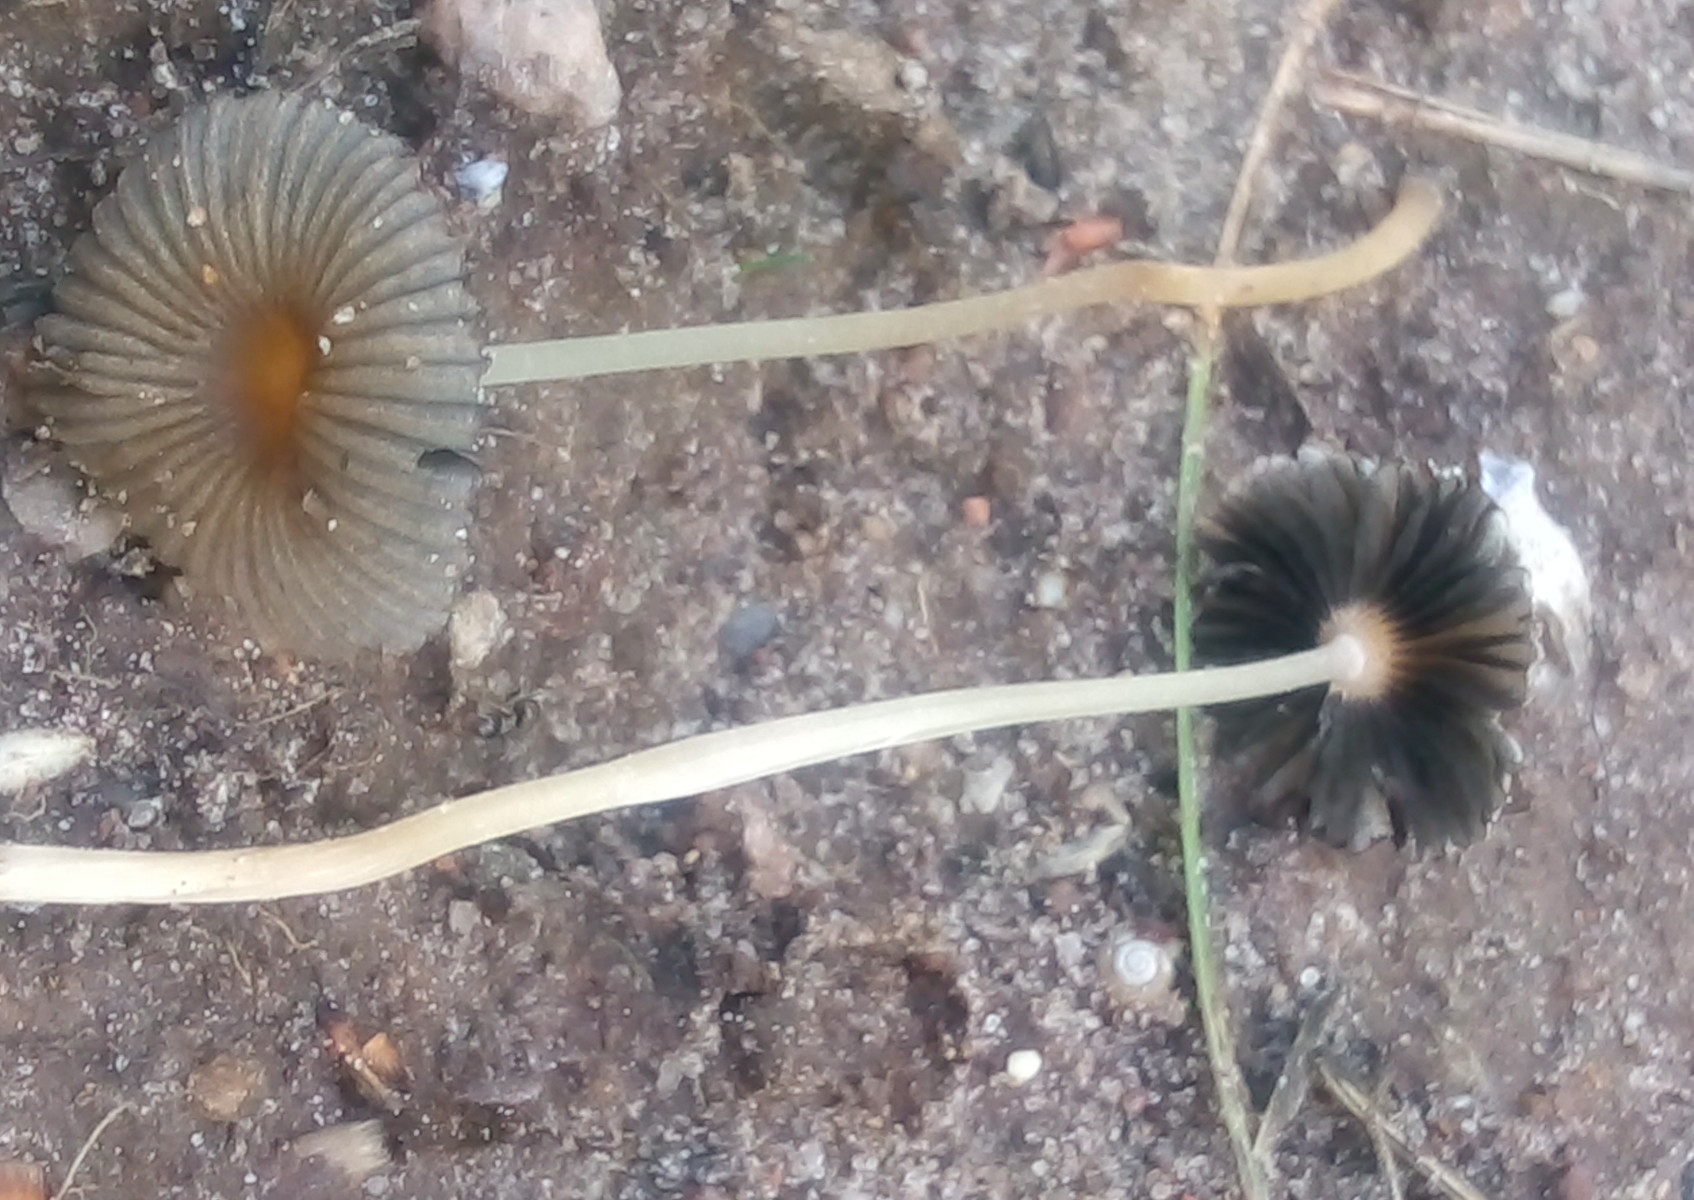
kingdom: Fungi
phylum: Basidiomycota
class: Agaricomycetes
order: Agaricales
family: Psathyrellaceae
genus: Parasola
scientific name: Parasola schroeteri
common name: bredsporet hjulhat
